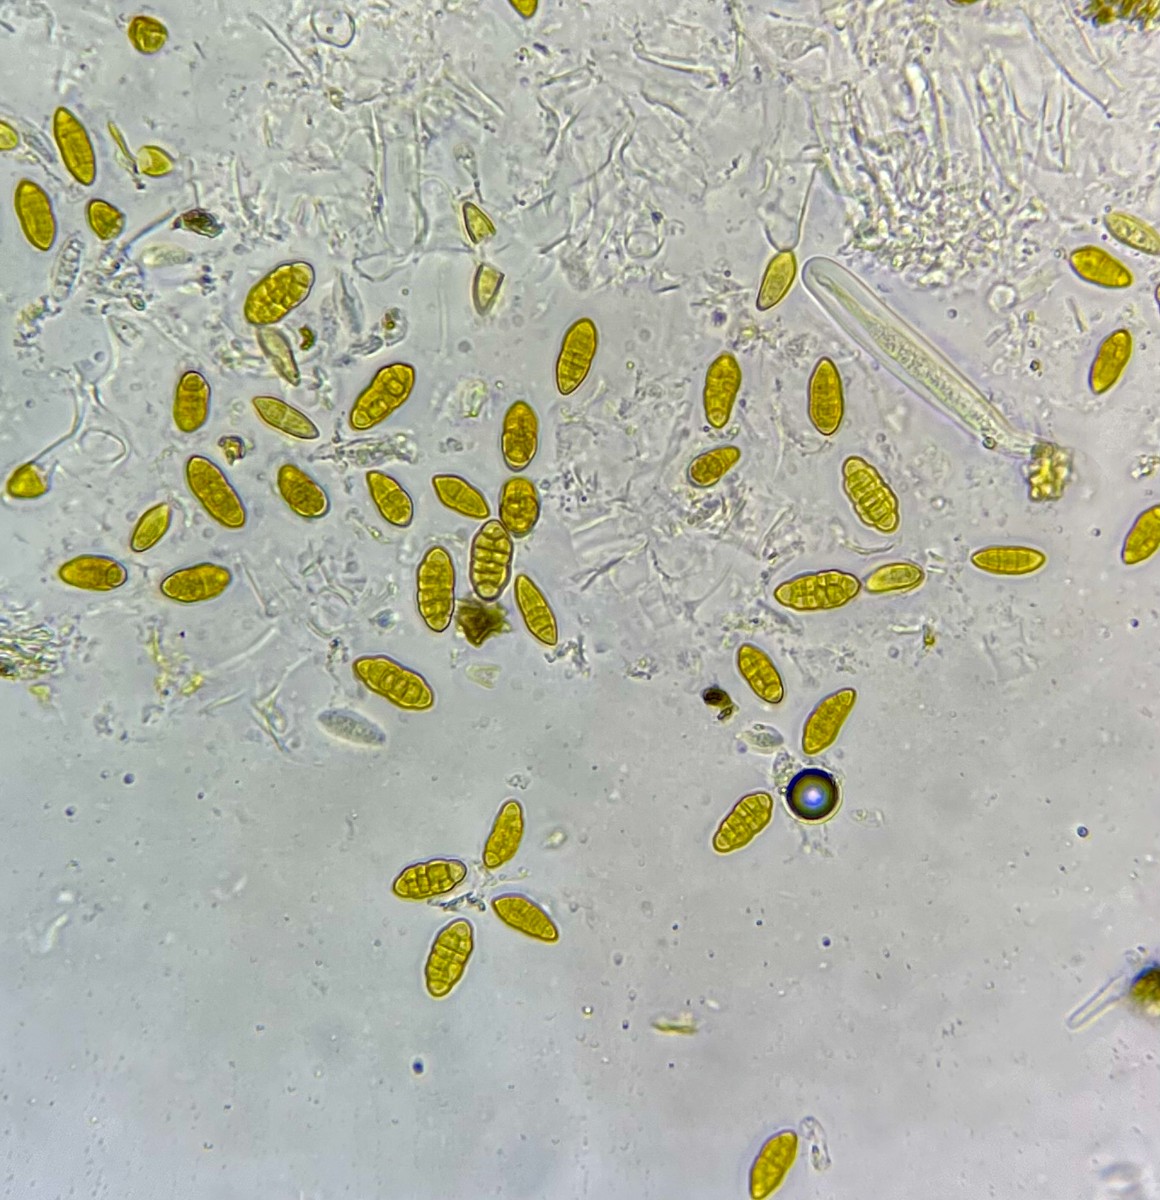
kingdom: Fungi
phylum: Ascomycota
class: Dothideomycetes
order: Pleosporales
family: Pleosporaceae
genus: Stemphylium
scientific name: Stemphylium
